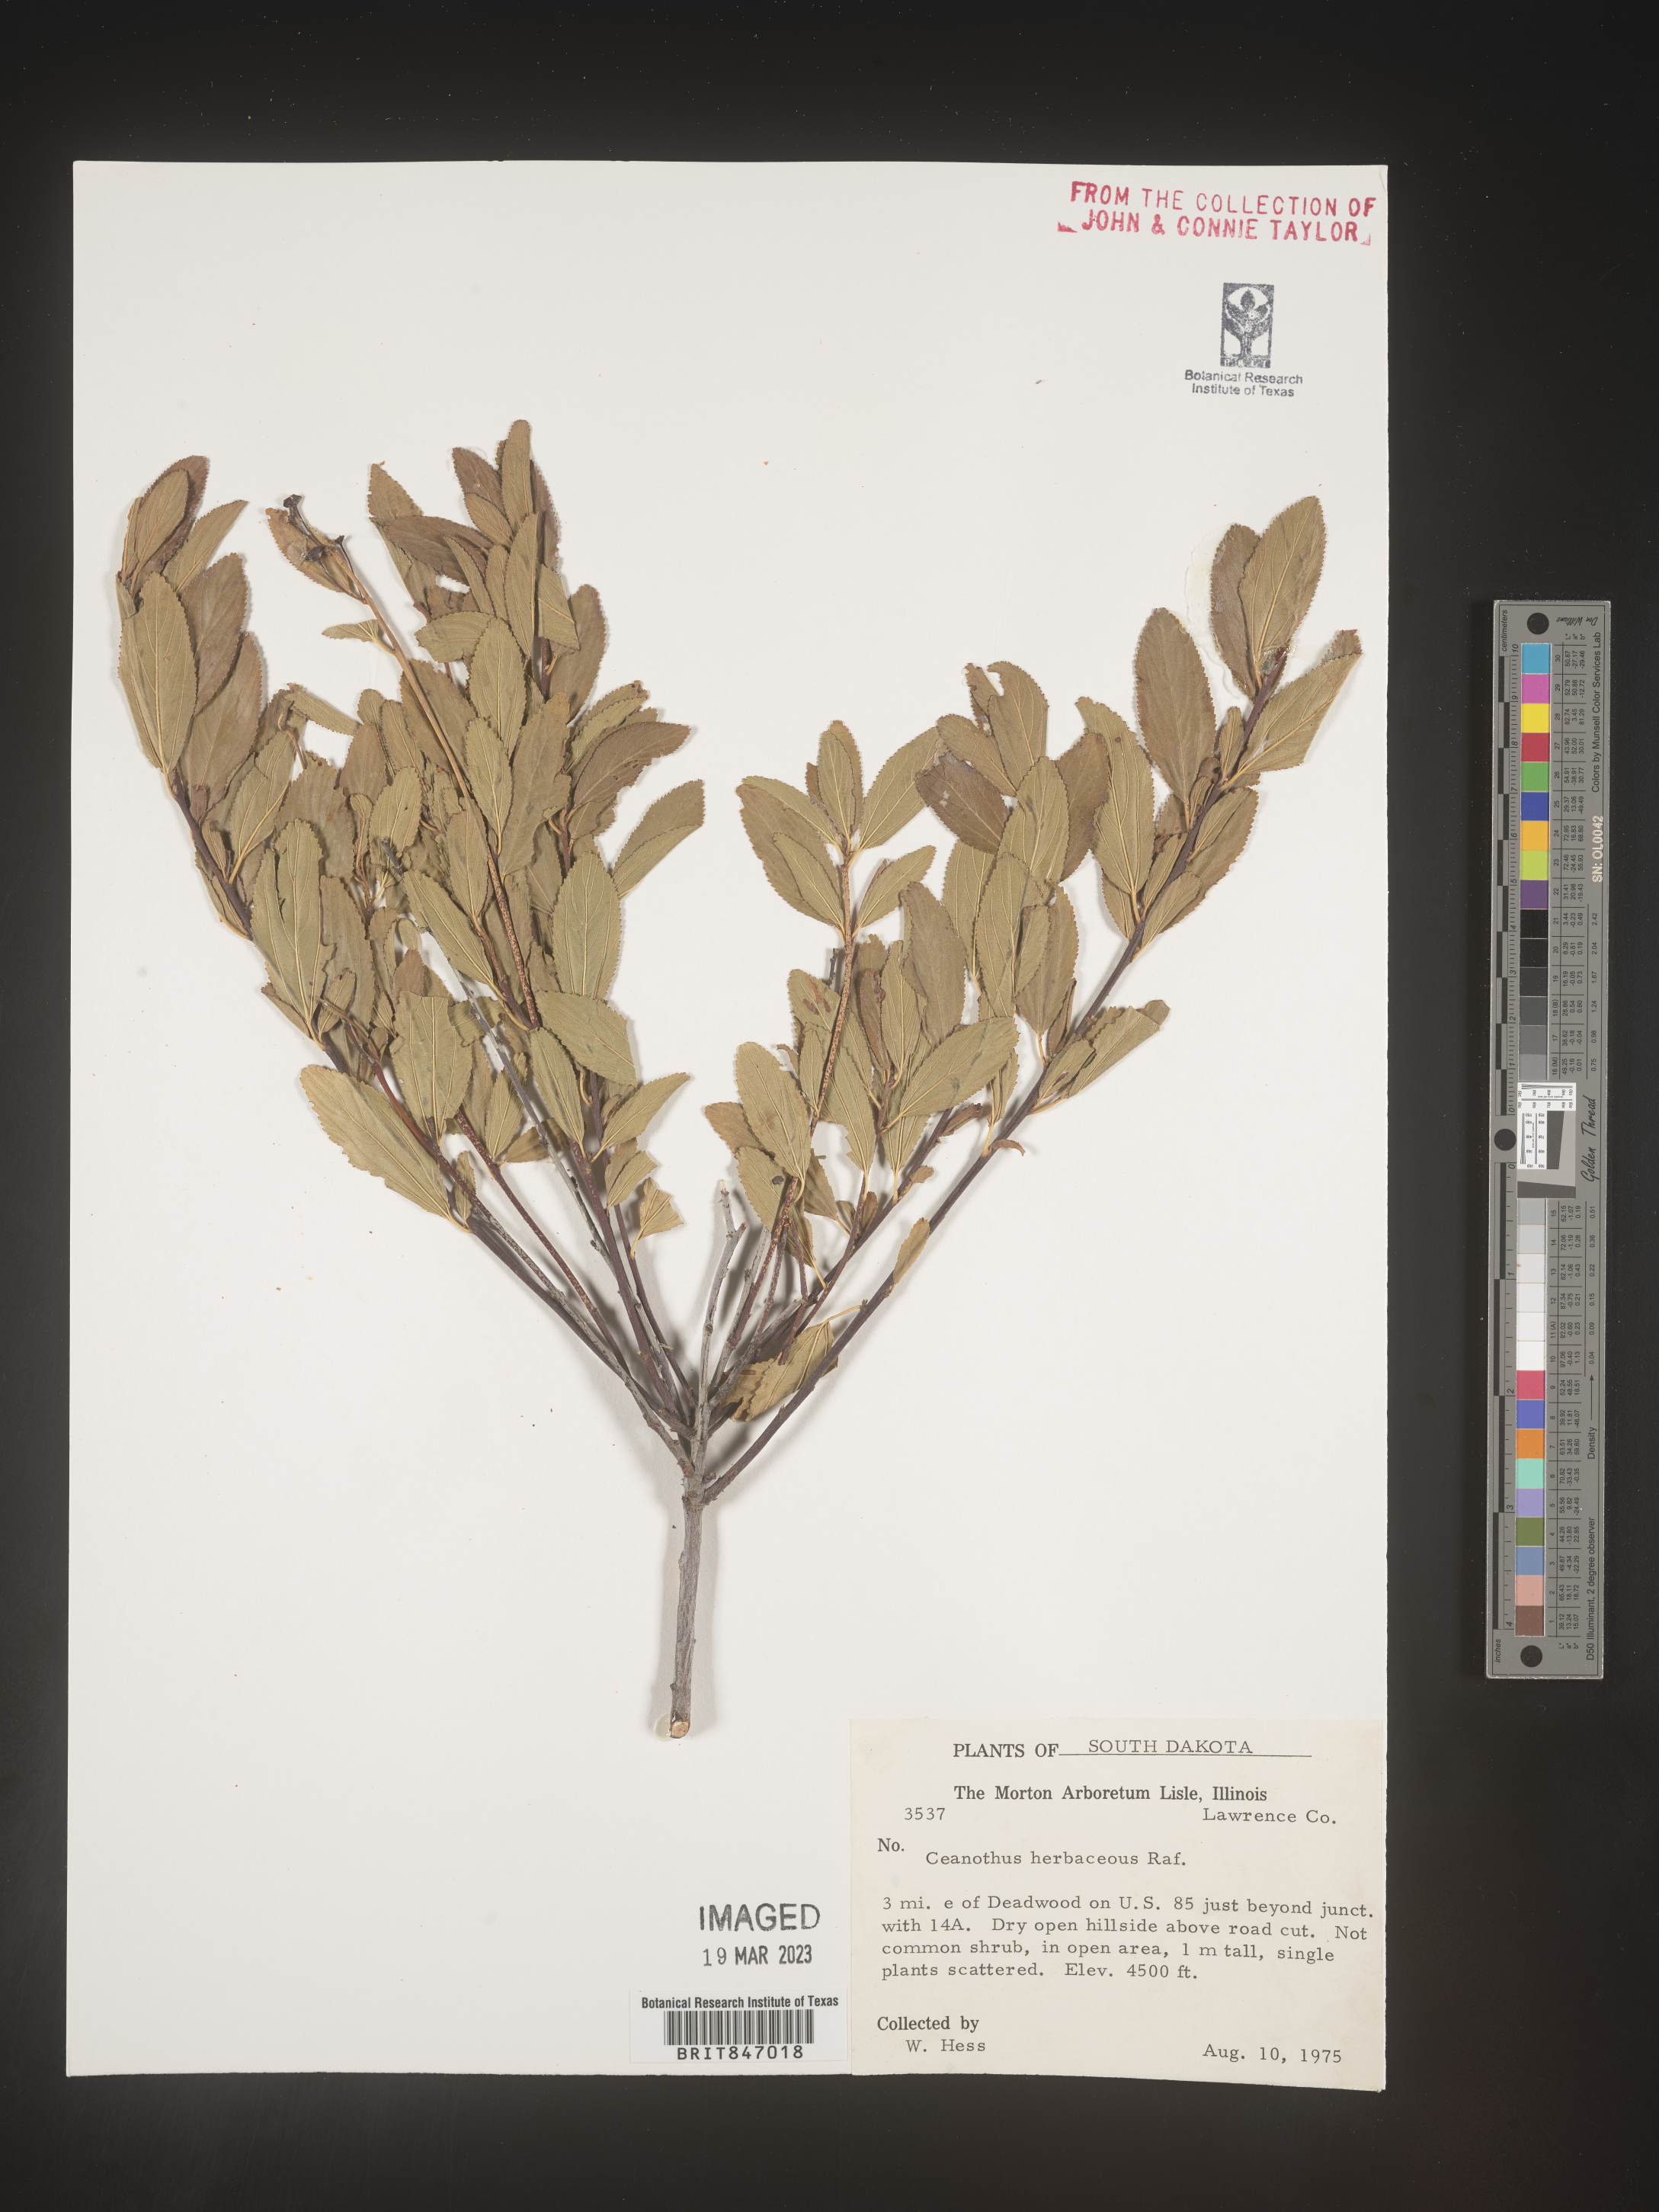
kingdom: Plantae
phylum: Tracheophyta
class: Magnoliopsida
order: Rosales
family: Rhamnaceae
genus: Ceanothus
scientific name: Ceanothus herbaceus
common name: Inland ceanothus
